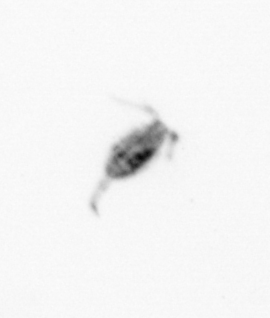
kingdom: Animalia
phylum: Arthropoda
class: Copepoda
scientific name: Copepoda
